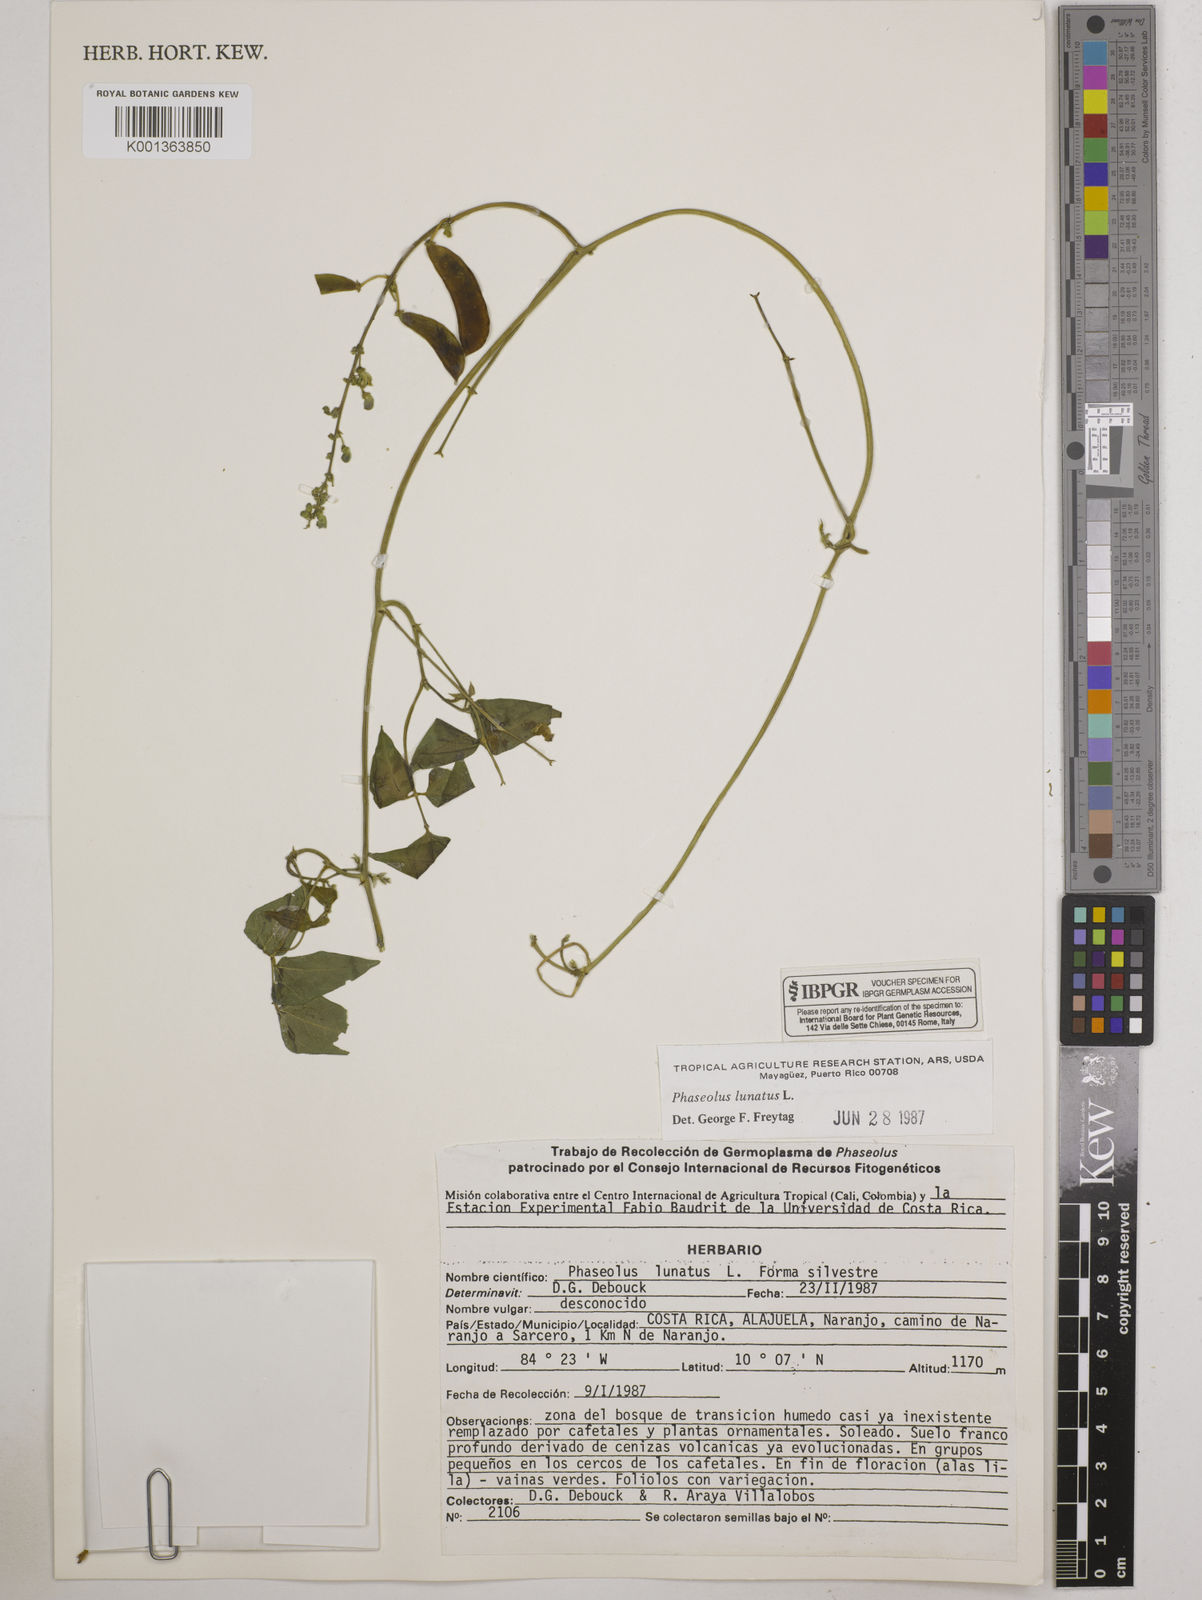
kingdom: Plantae
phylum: Tracheophyta
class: Magnoliopsida
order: Fabales
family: Fabaceae
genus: Phaseolus
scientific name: Phaseolus lunatus
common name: Sieva bean
